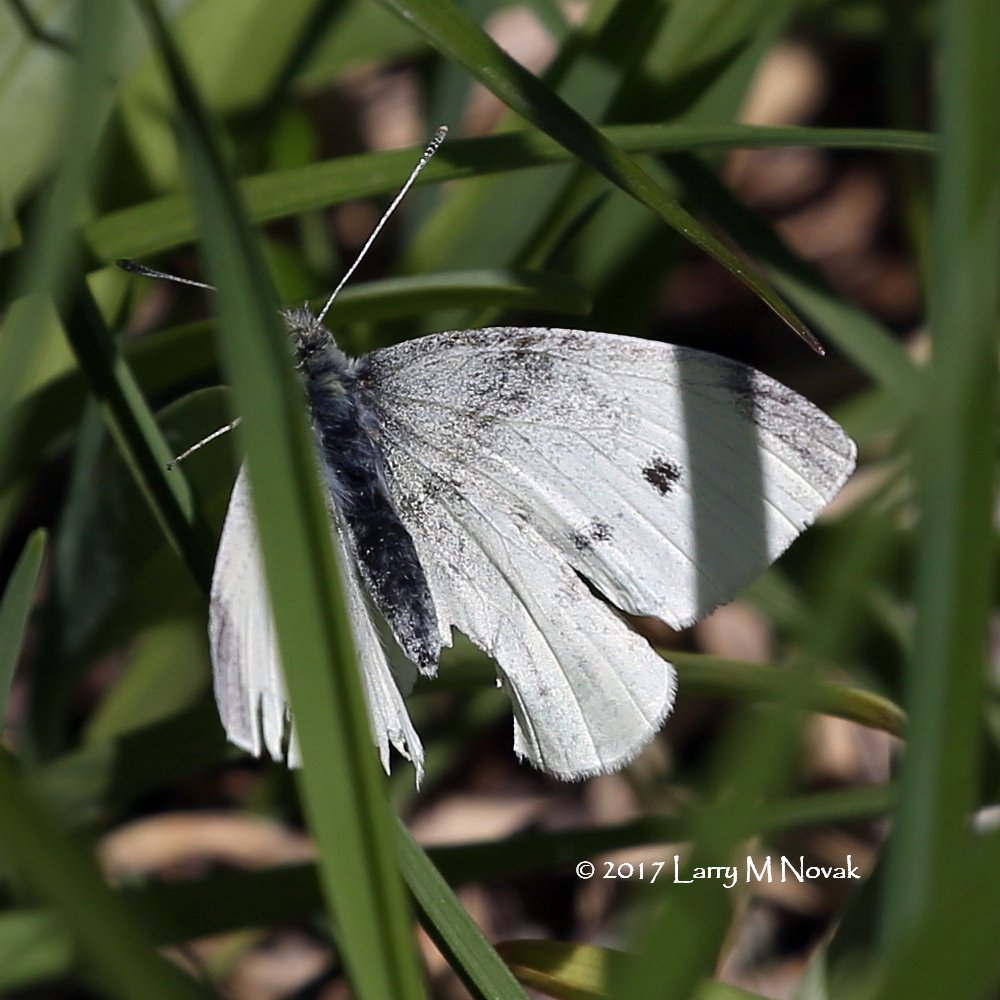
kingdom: Animalia
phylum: Arthropoda
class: Insecta
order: Lepidoptera
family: Pieridae
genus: Pieris
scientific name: Pieris rapae
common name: Cabbage White
